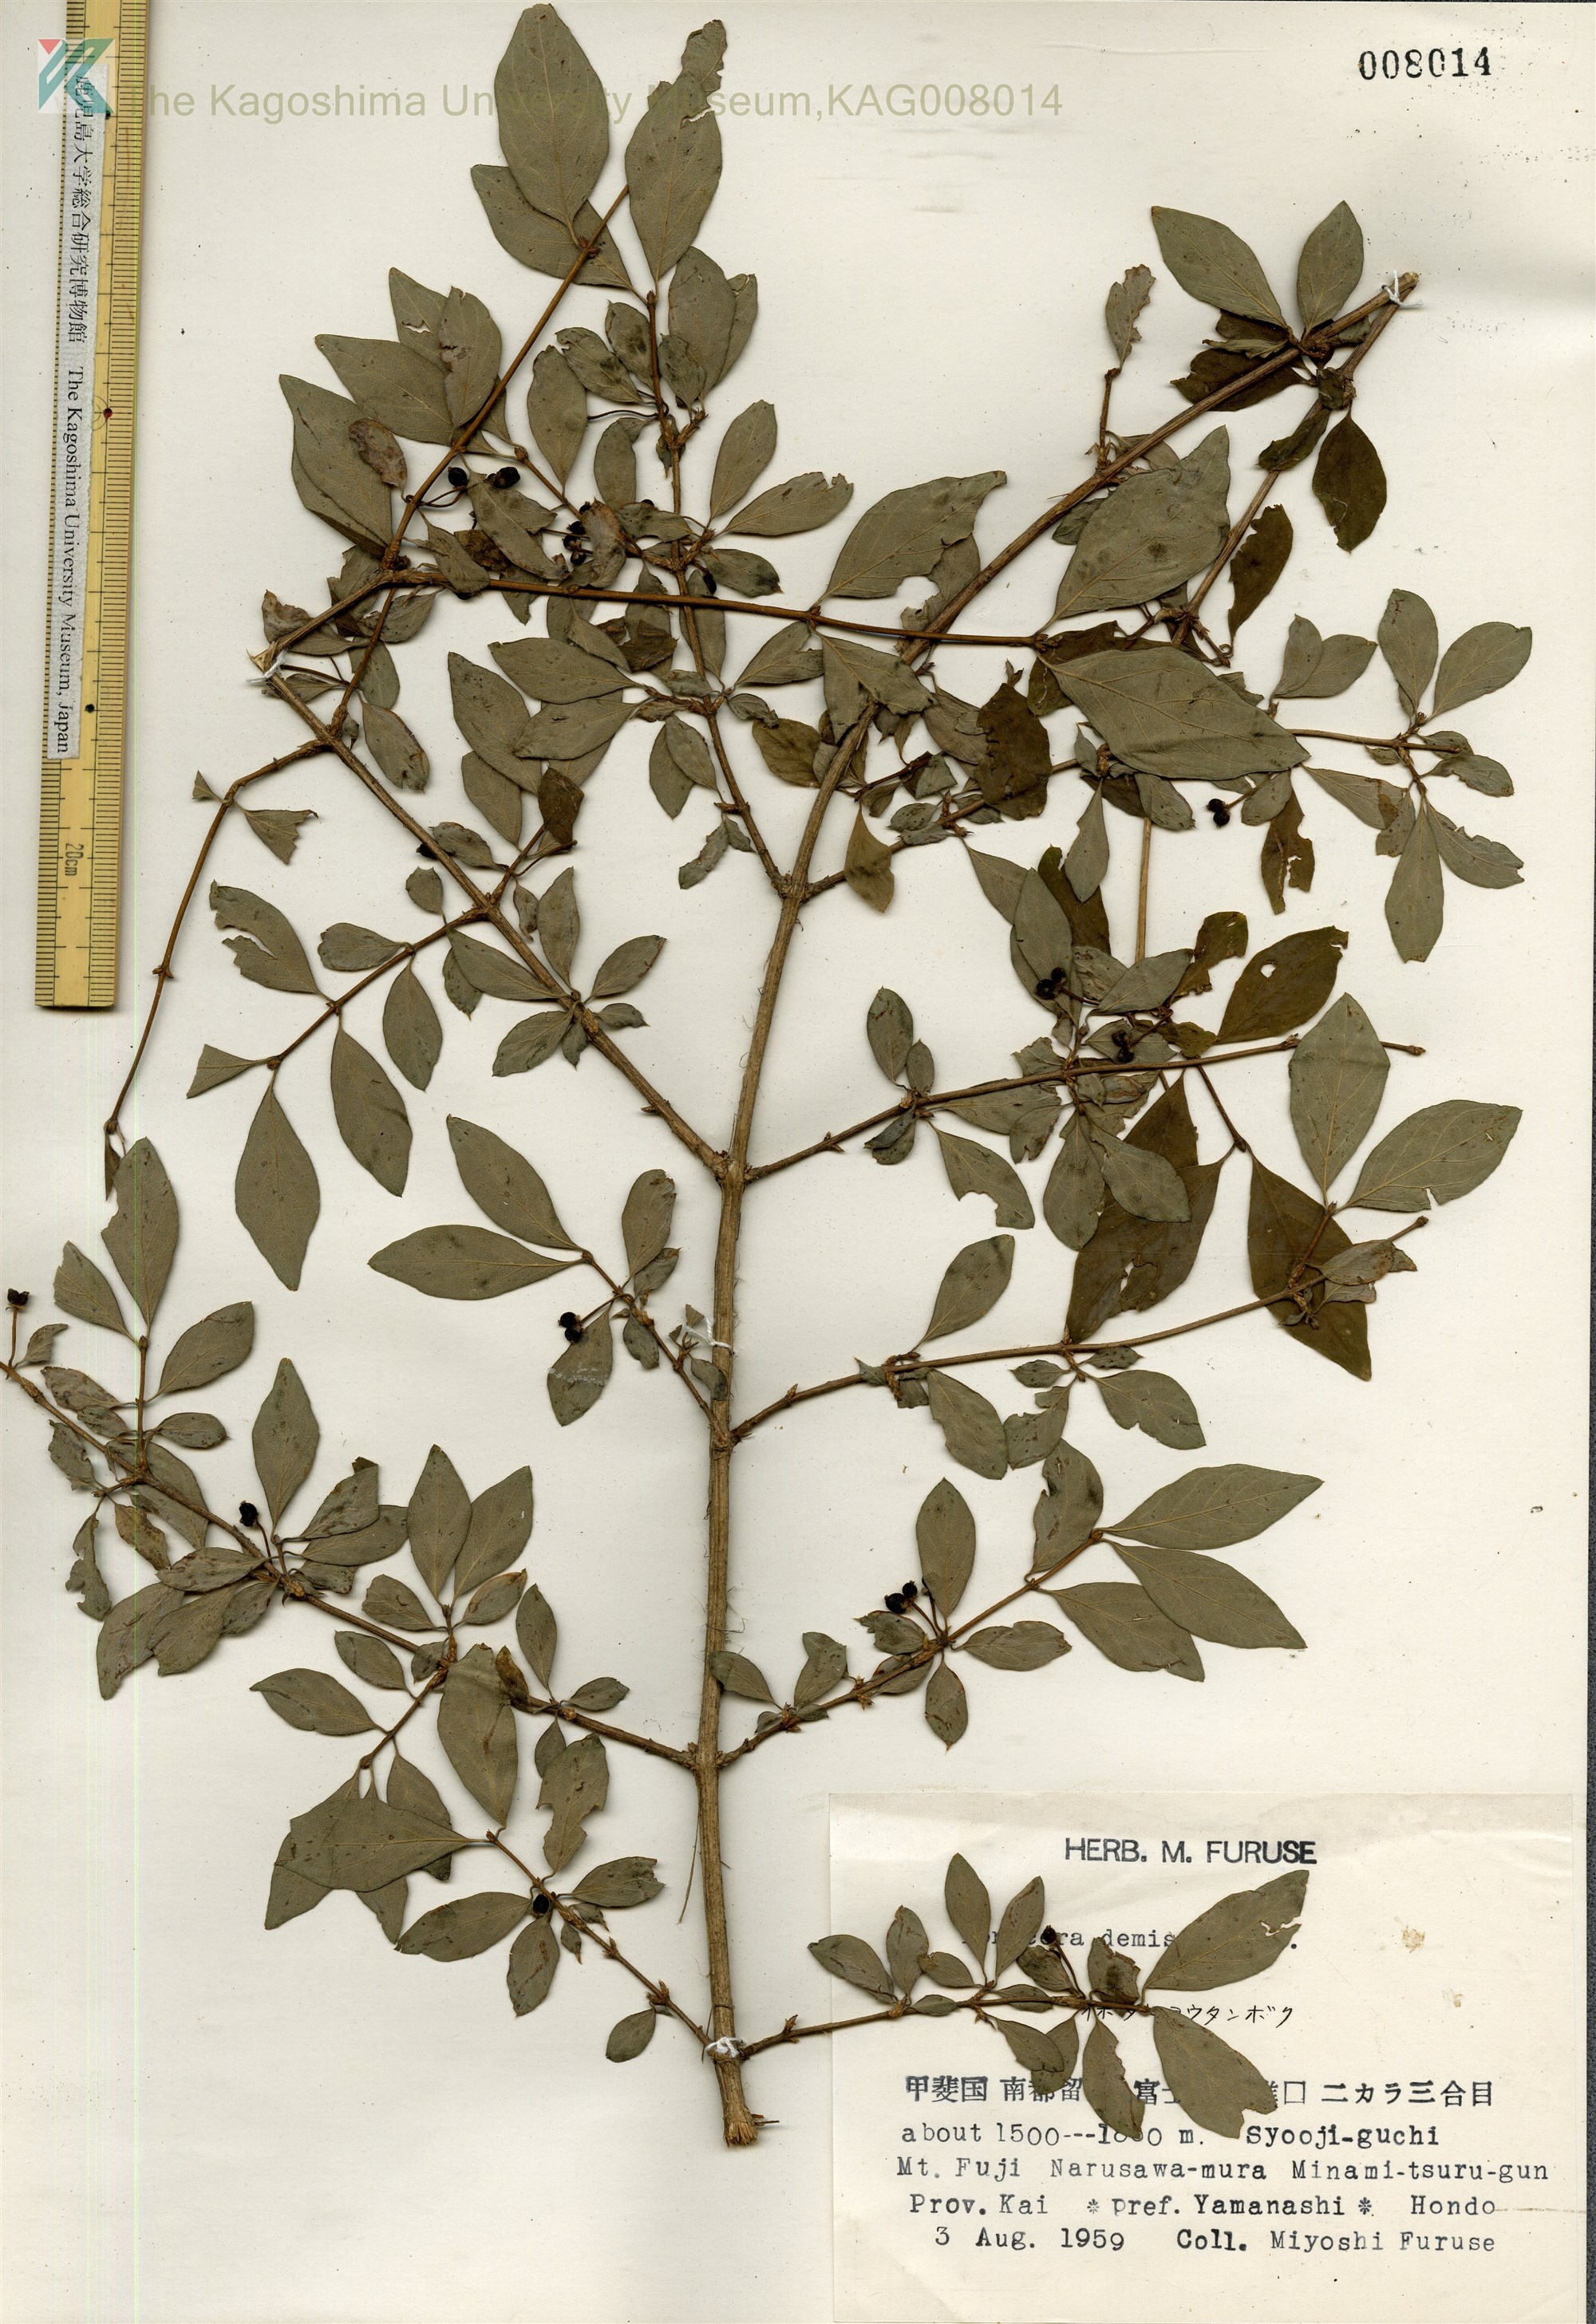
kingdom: Plantae
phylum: Tracheophyta
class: Magnoliopsida
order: Dipsacales
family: Caprifoliaceae
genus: Lonicera
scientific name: Lonicera demissa
